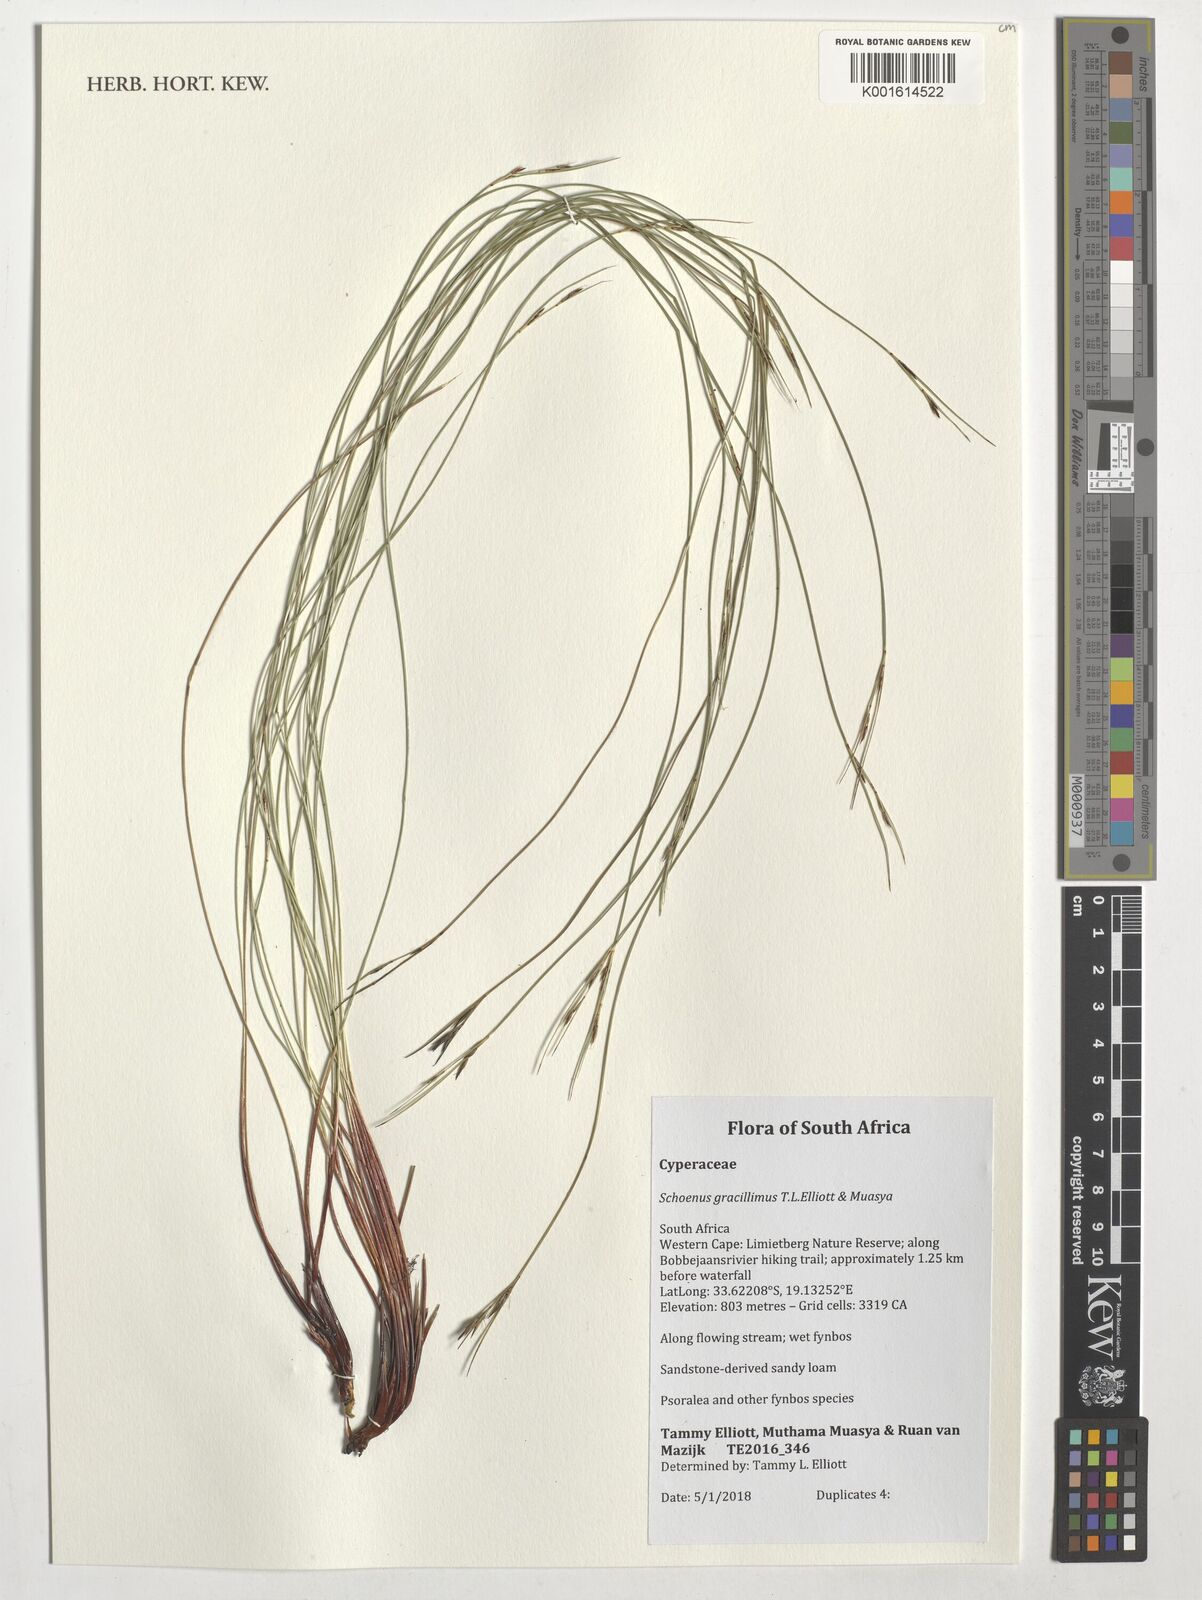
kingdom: Plantae
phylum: Tracheophyta
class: Liliopsida
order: Poales
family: Cyperaceae
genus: Schoenus
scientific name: Schoenus gracillimus
